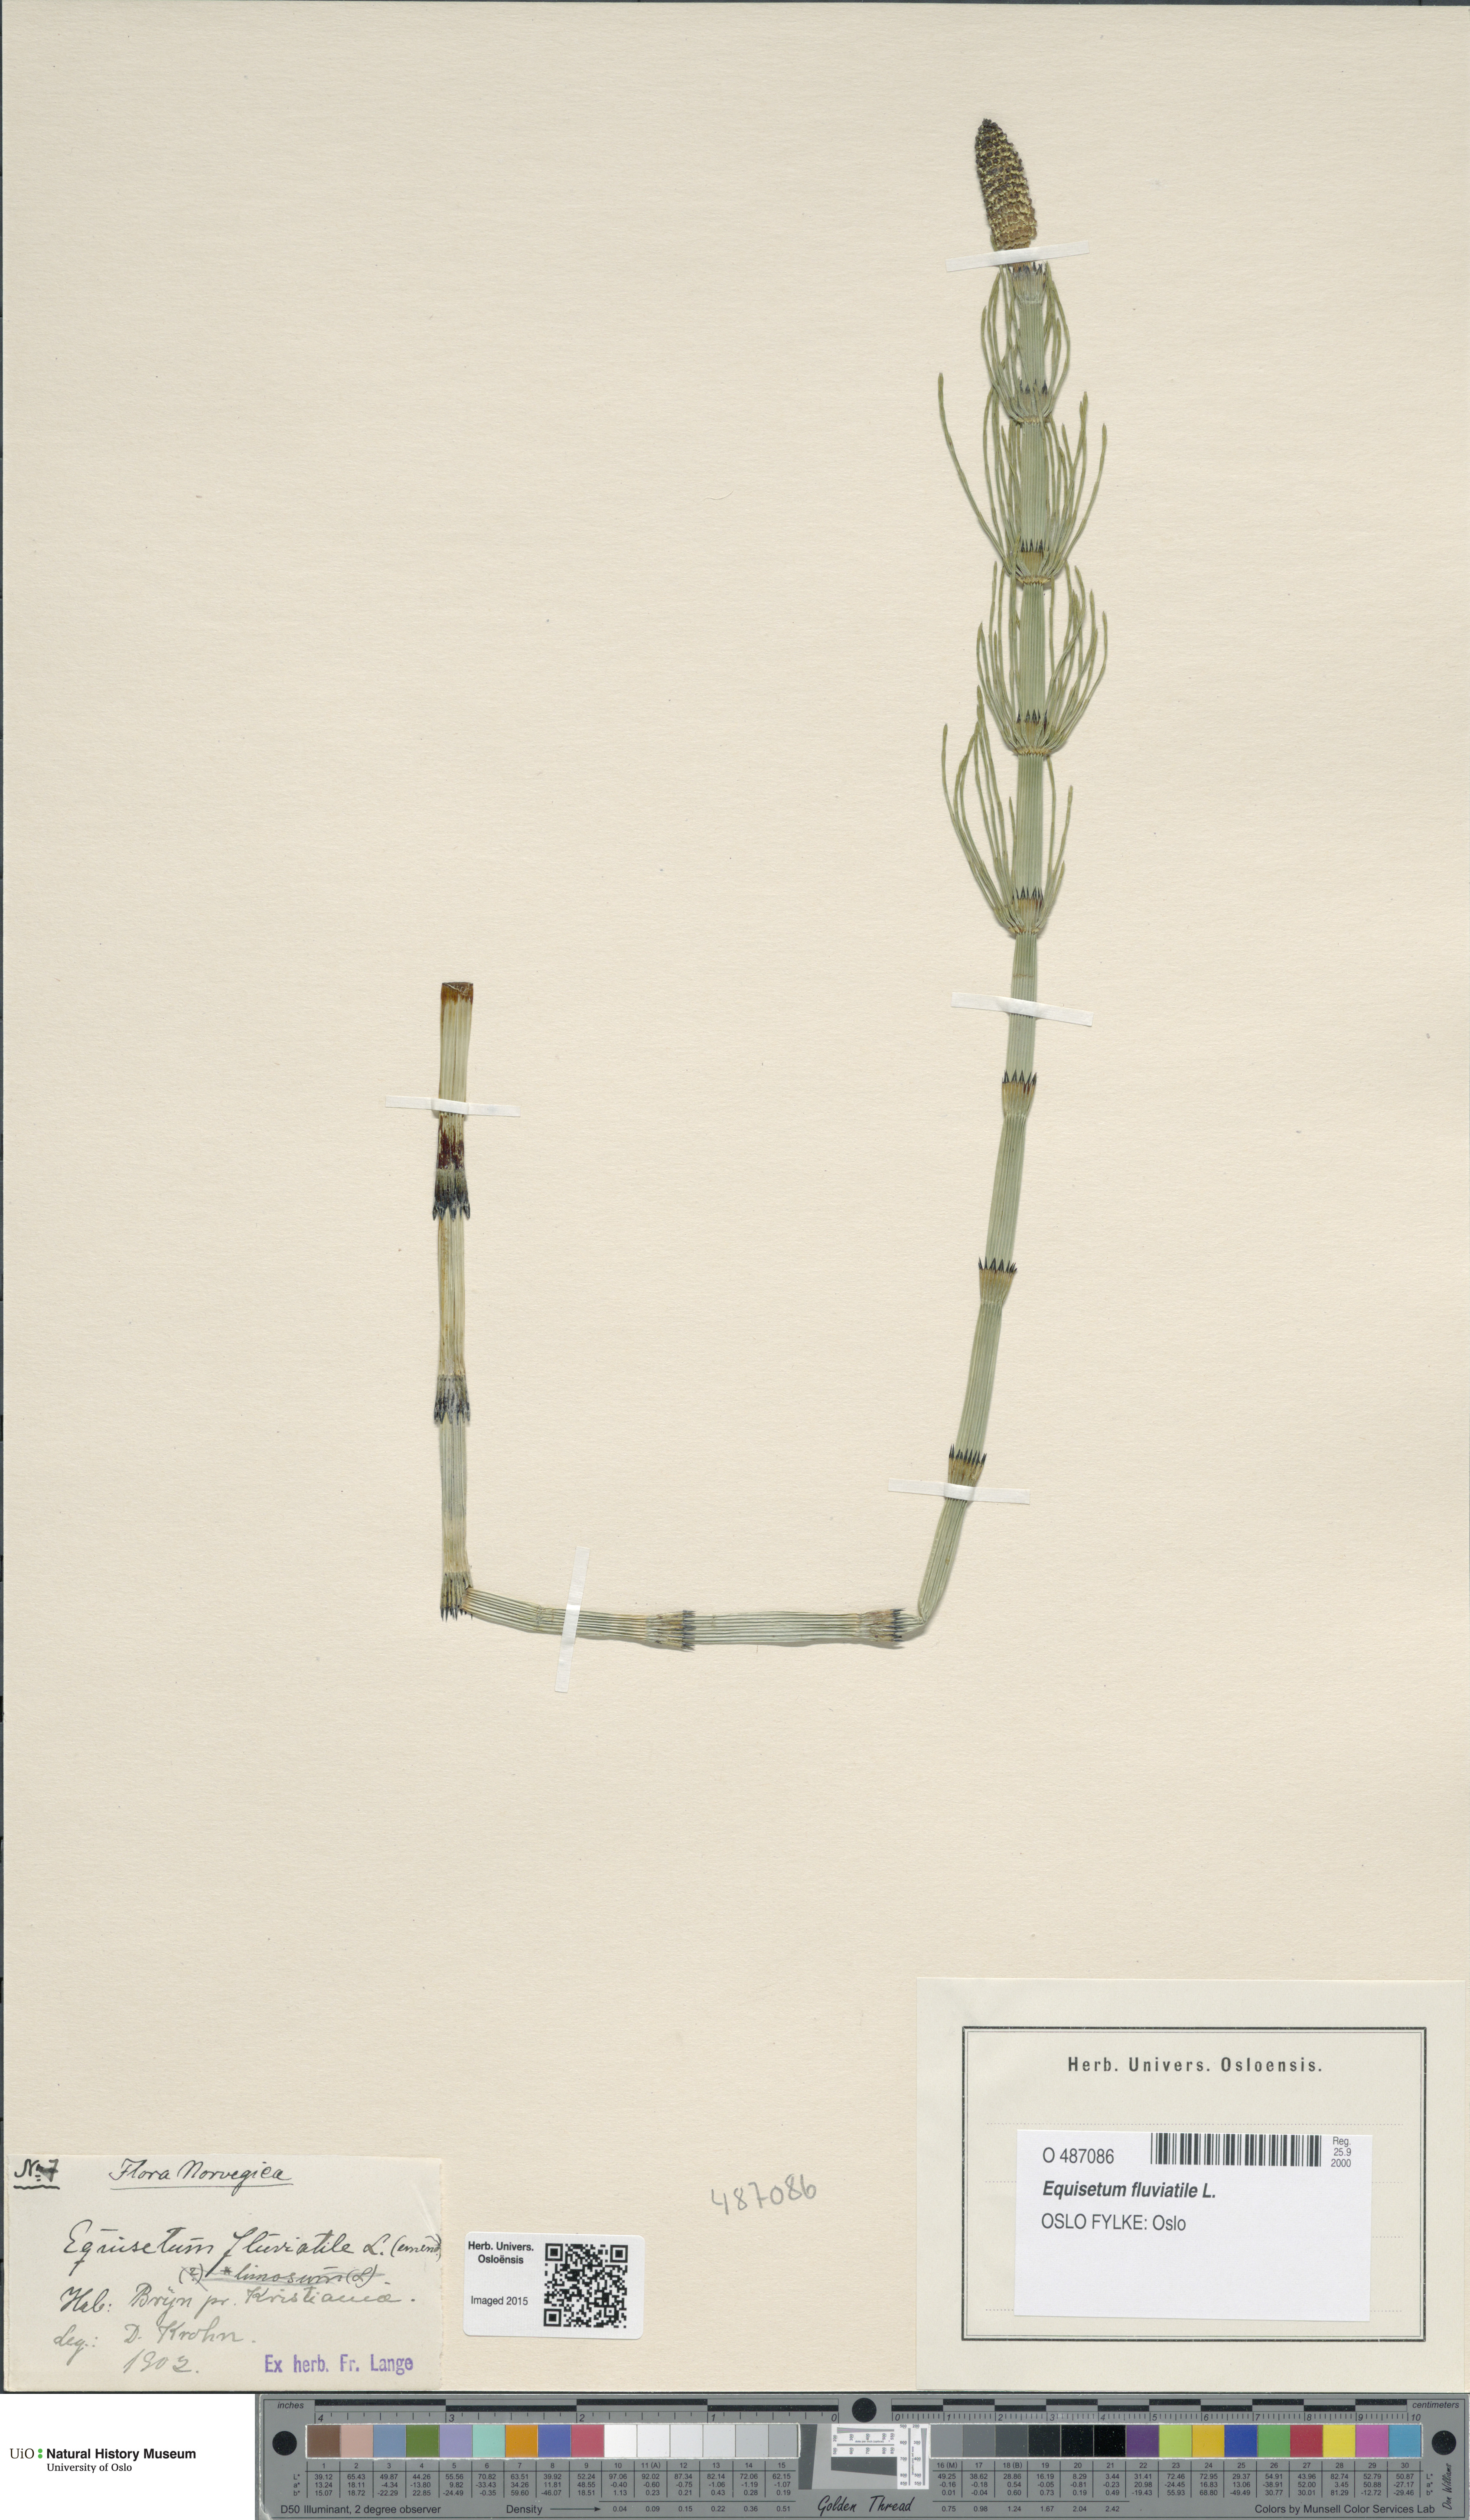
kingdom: Plantae
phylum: Tracheophyta
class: Polypodiopsida
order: Equisetales
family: Equisetaceae
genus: Equisetum
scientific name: Equisetum fluviatile
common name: Water horsetail
